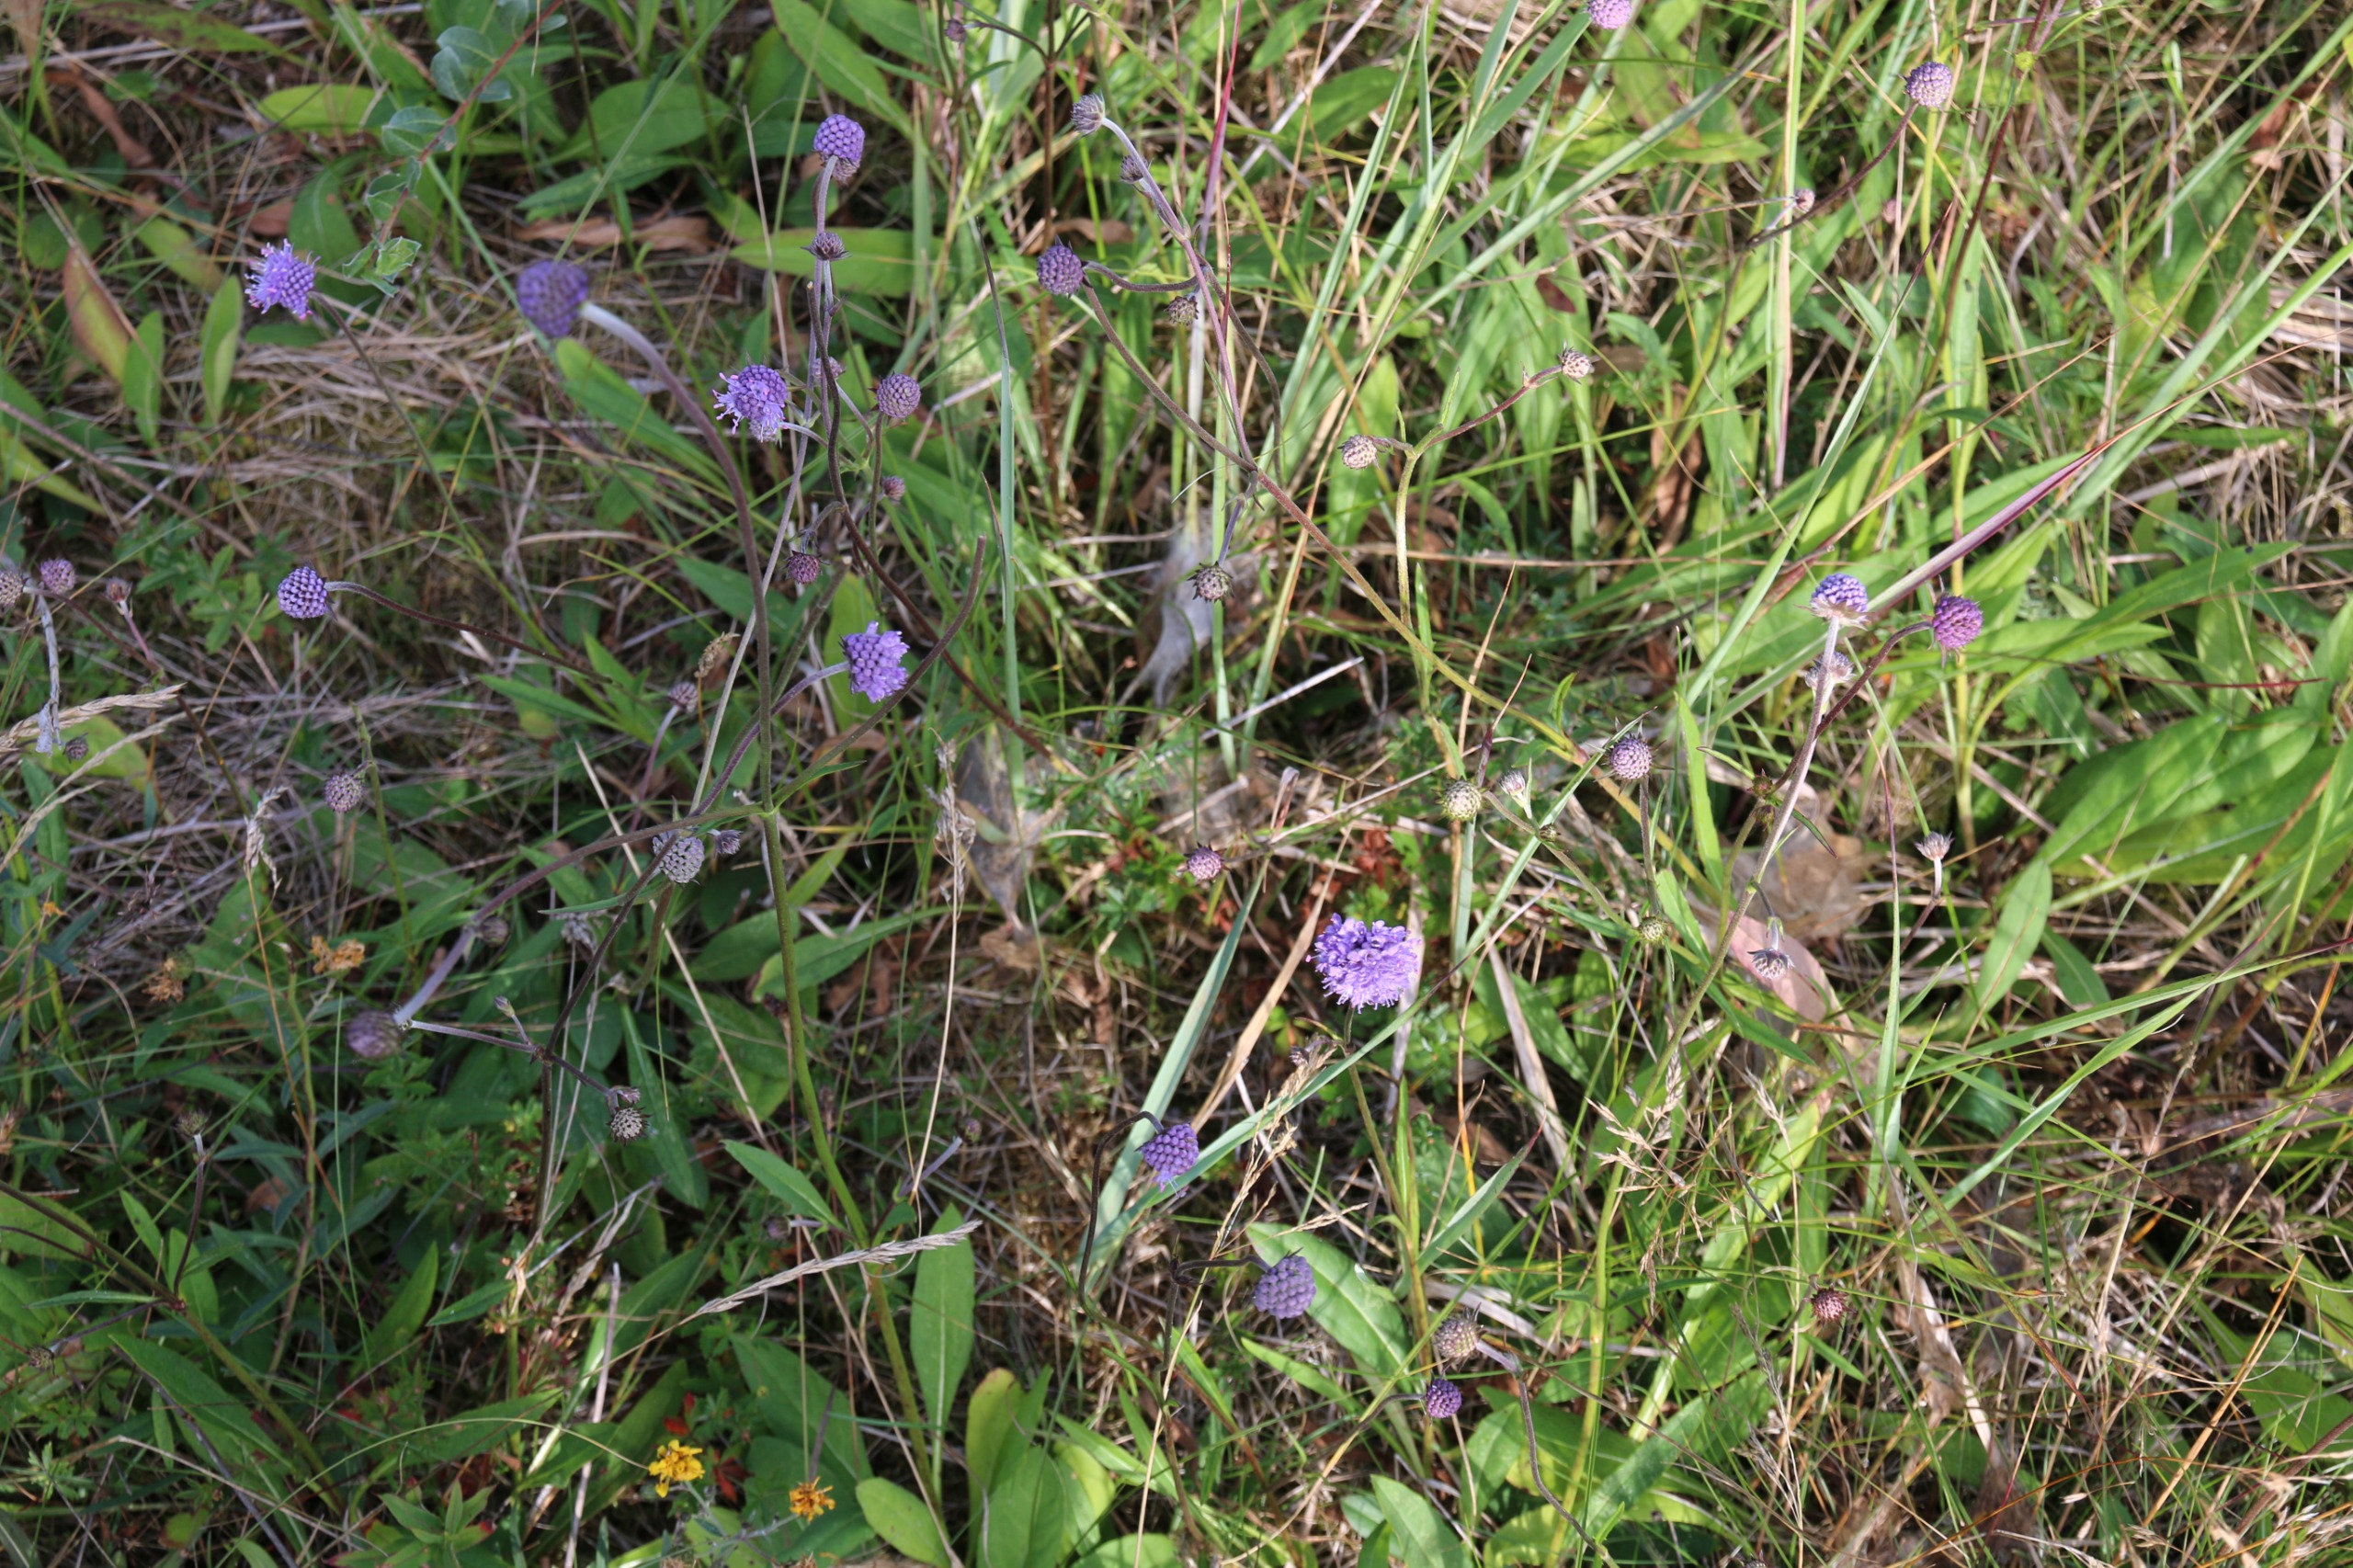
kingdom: Animalia
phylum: Arthropoda
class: Insecta
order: Lepidoptera
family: Nymphalidae
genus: Euphydryas
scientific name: Euphydryas aurinia
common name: Hedepletvinge
